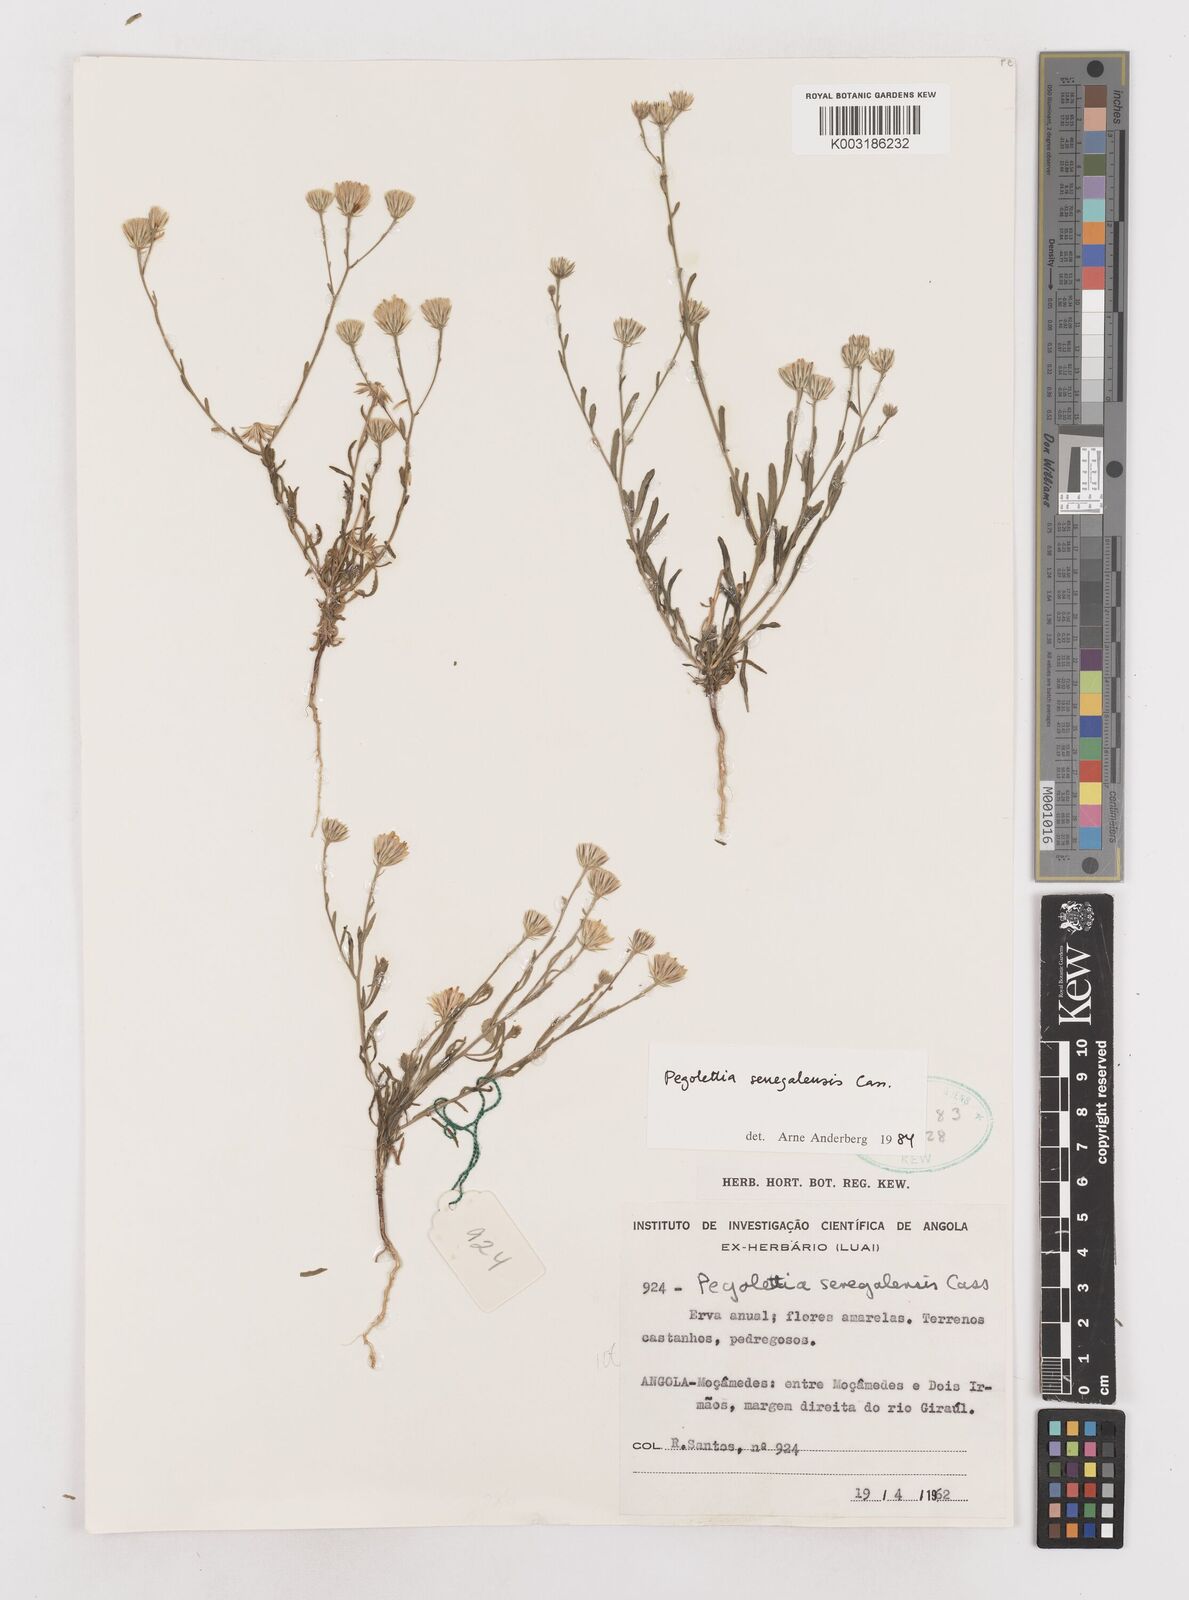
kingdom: Plantae
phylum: Tracheophyta
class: Magnoliopsida
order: Asterales
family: Asteraceae
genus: Pegolettia
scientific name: Pegolettia senegalensis
